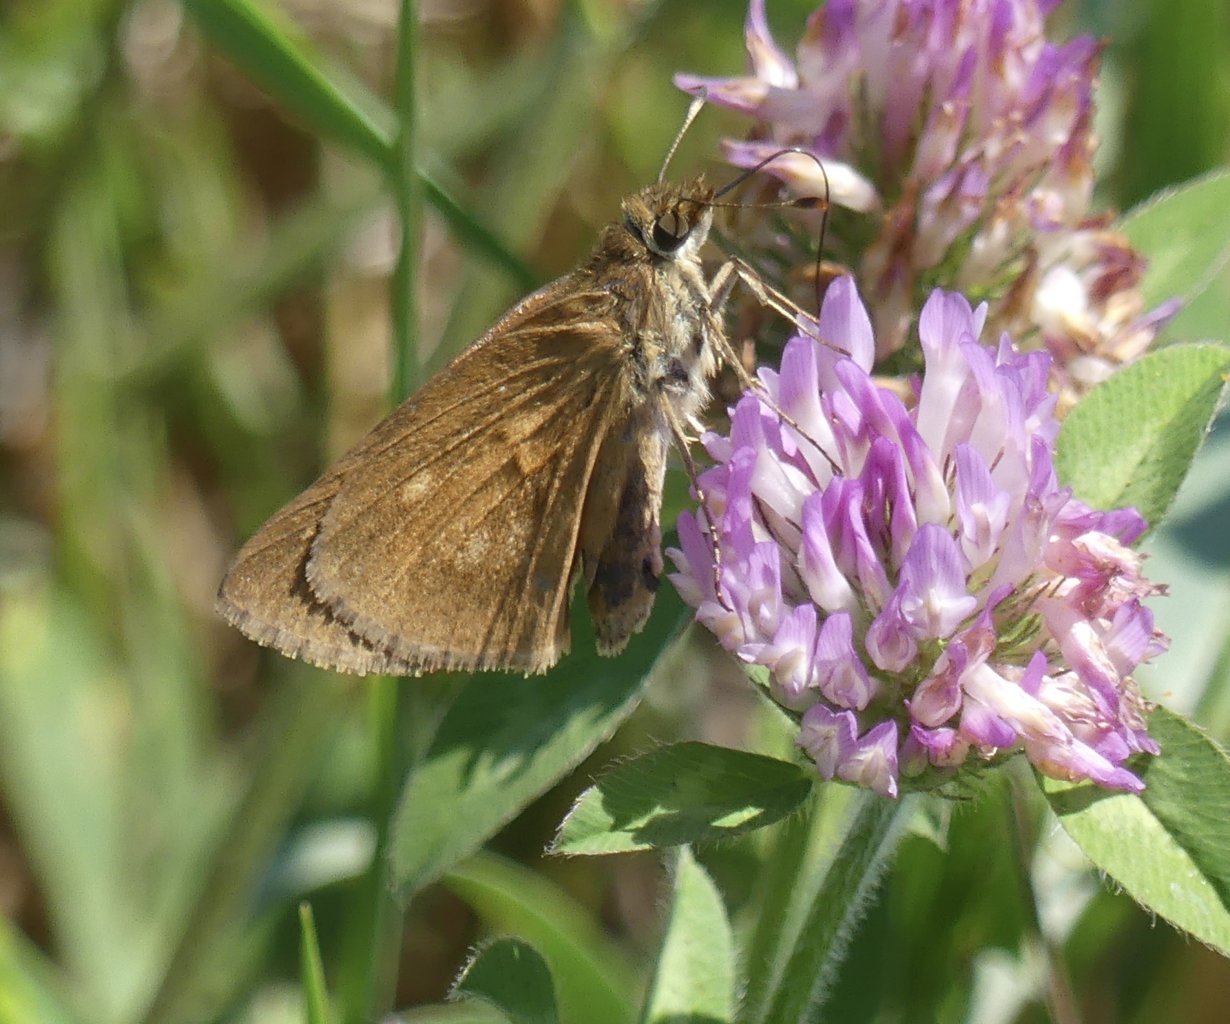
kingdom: Animalia
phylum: Arthropoda
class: Insecta
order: Lepidoptera
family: Hesperiidae
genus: Poanes
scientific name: Poanes viator
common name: Broad-winged Skipper
